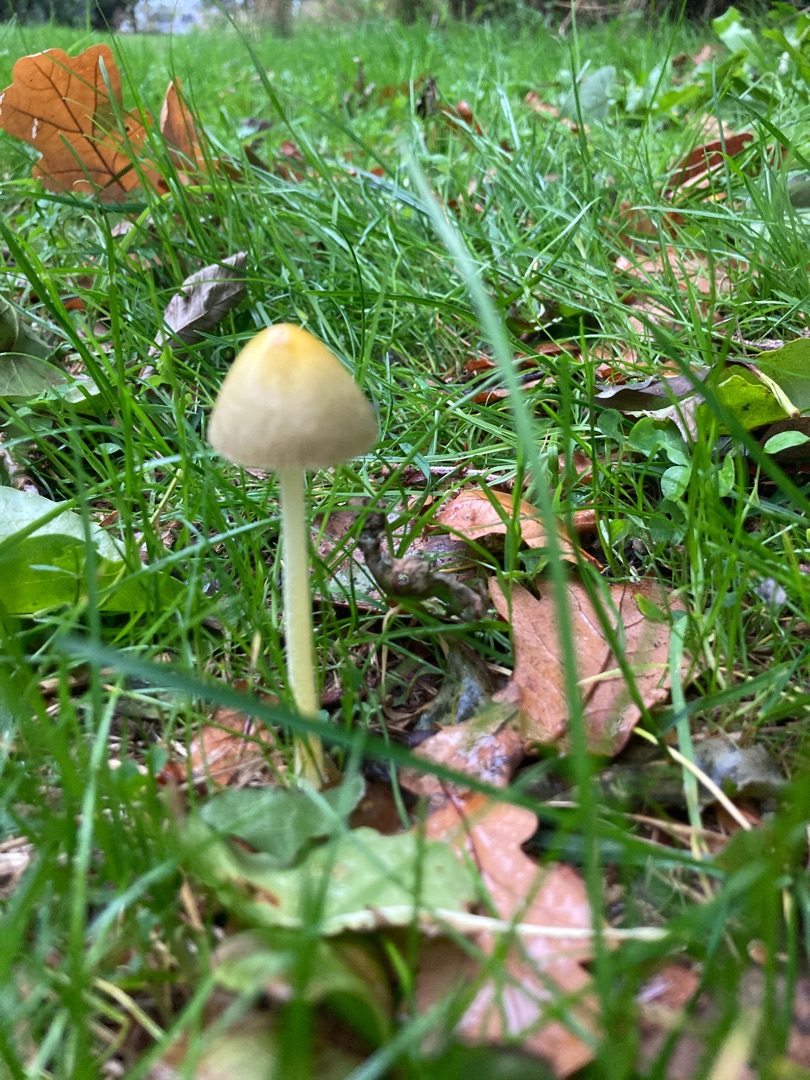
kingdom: Fungi
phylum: Basidiomycota
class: Agaricomycetes
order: Agaricales
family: Bolbitiaceae
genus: Bolbitius
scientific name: Bolbitius titubans
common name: Almindelig gulhat
